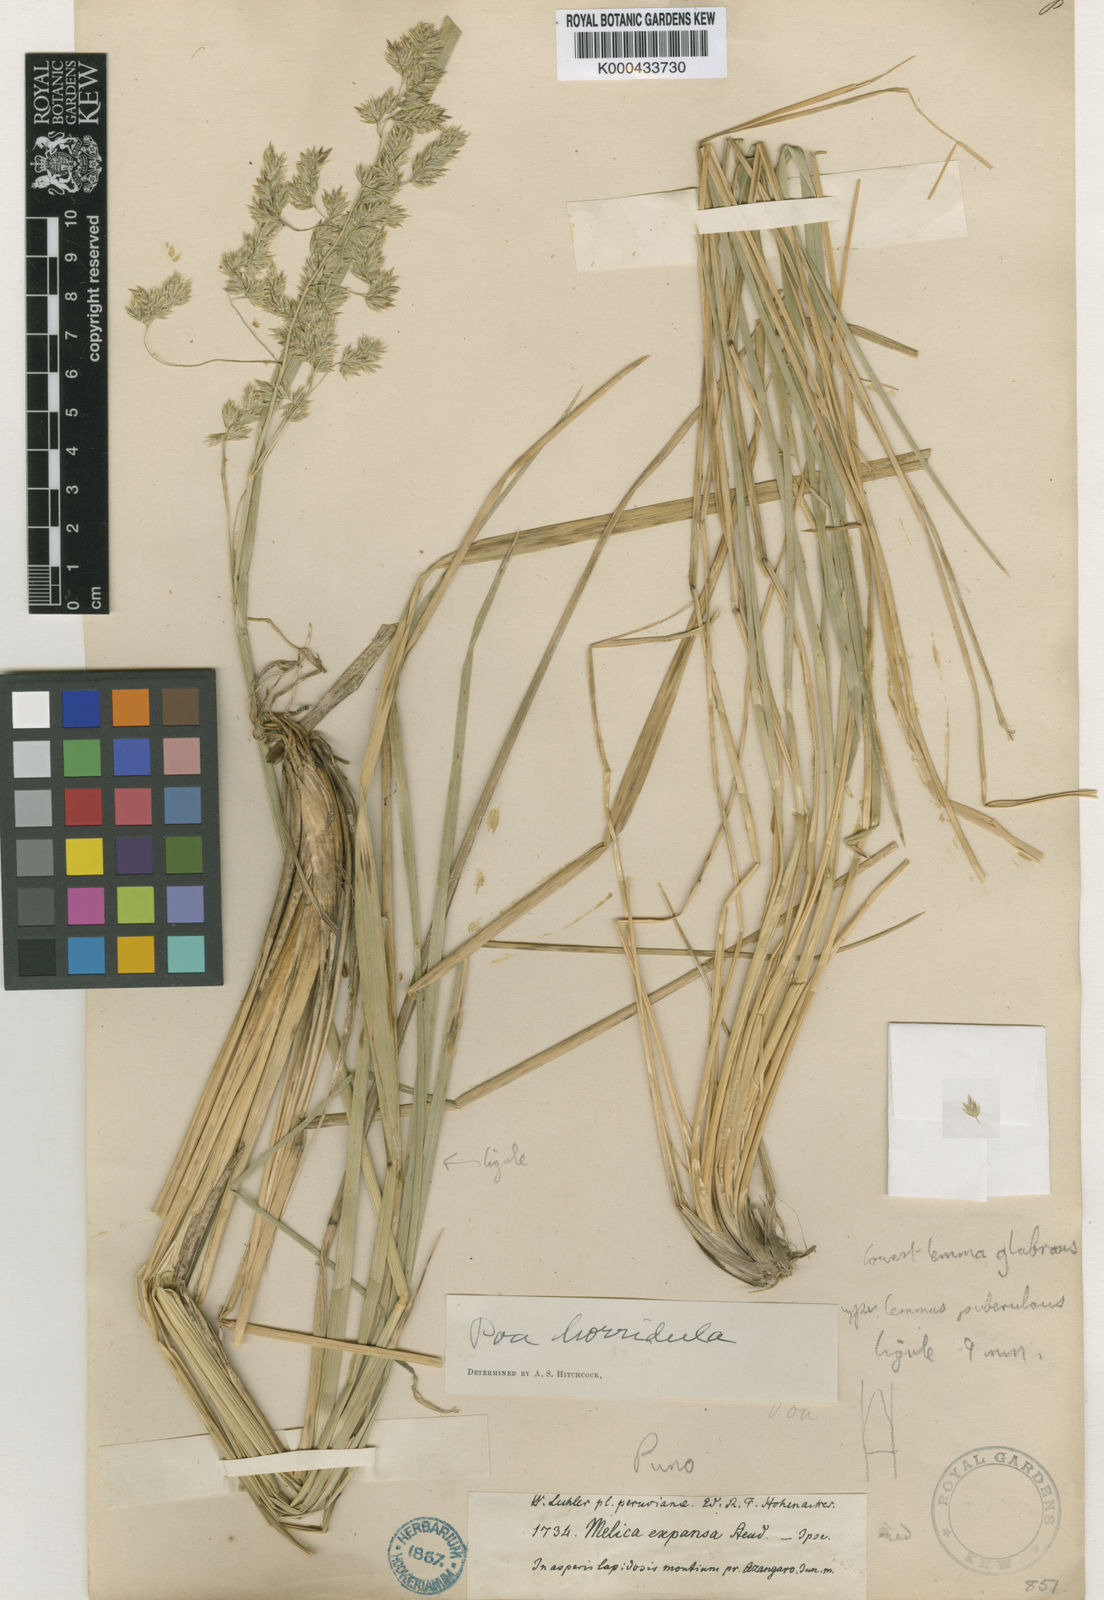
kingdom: Plantae
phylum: Tracheophyta
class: Liliopsida
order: Poales
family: Poaceae
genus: Poa
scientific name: Poa gilgiana
